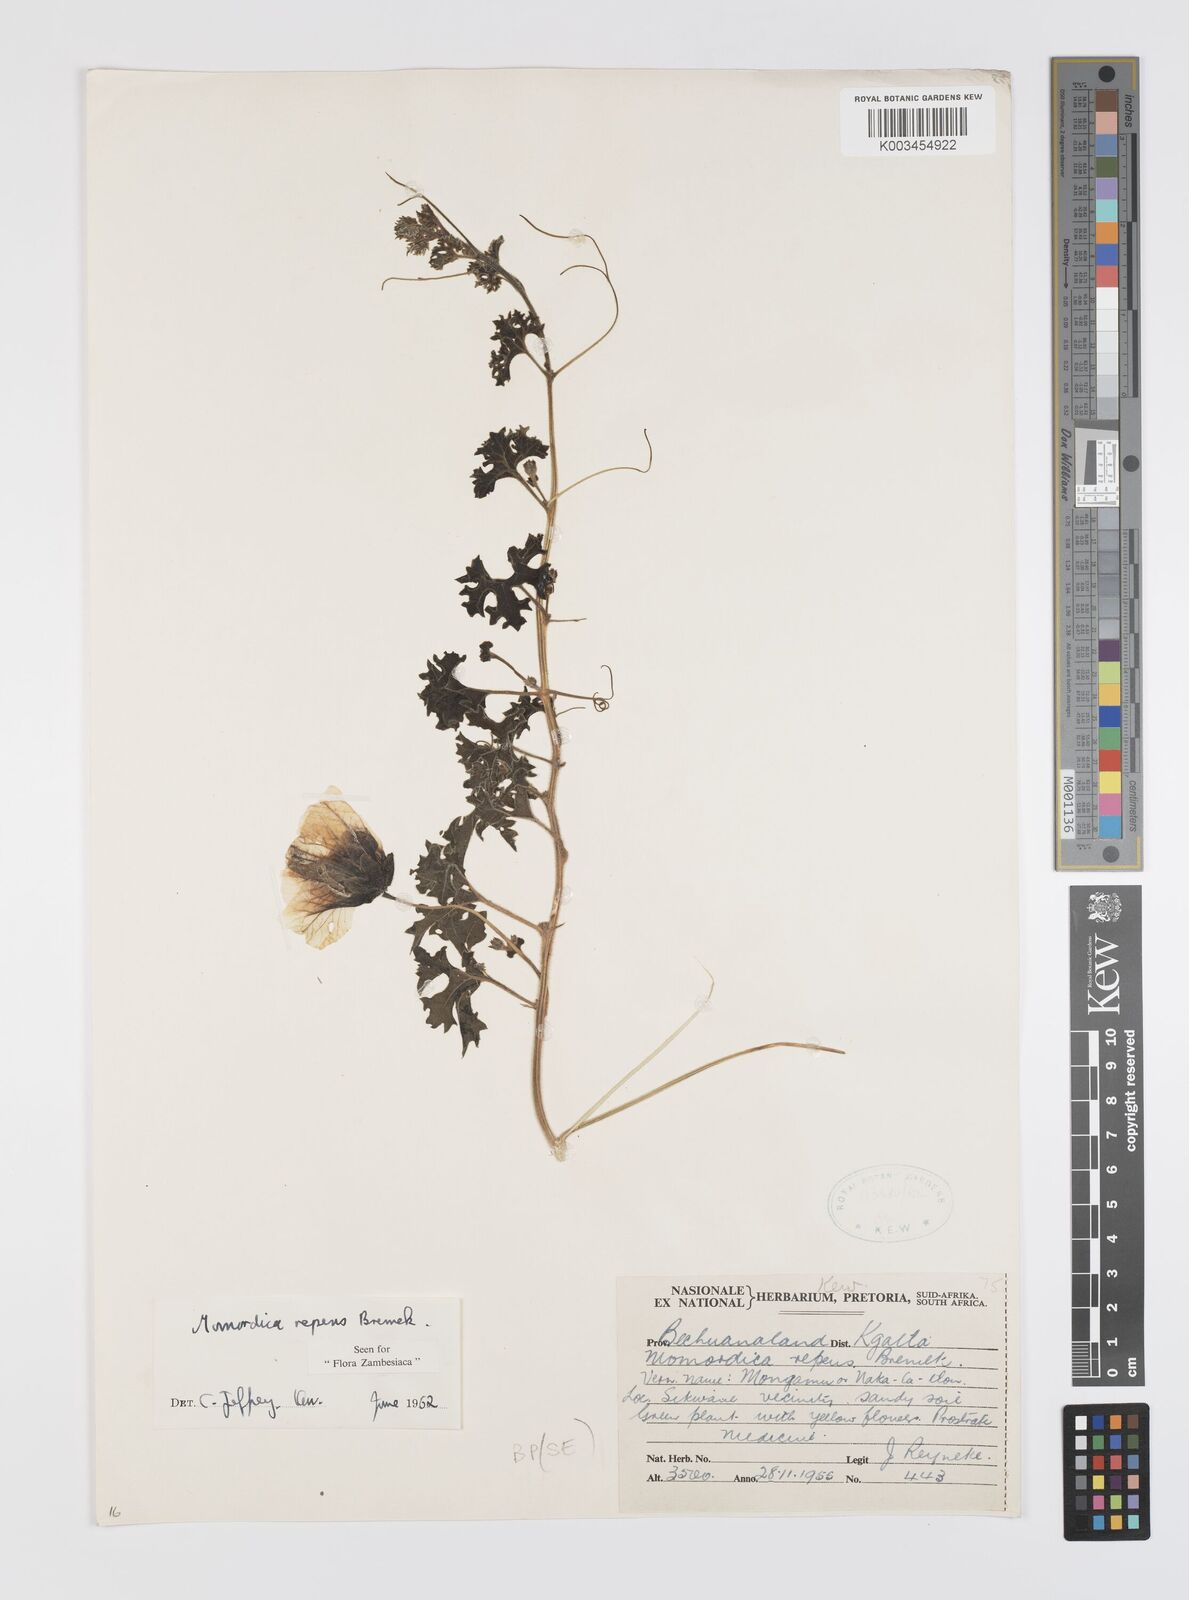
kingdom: Plantae
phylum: Tracheophyta
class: Magnoliopsida
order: Cucurbitales
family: Cucurbitaceae
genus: Momordica
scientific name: Momordica repens
